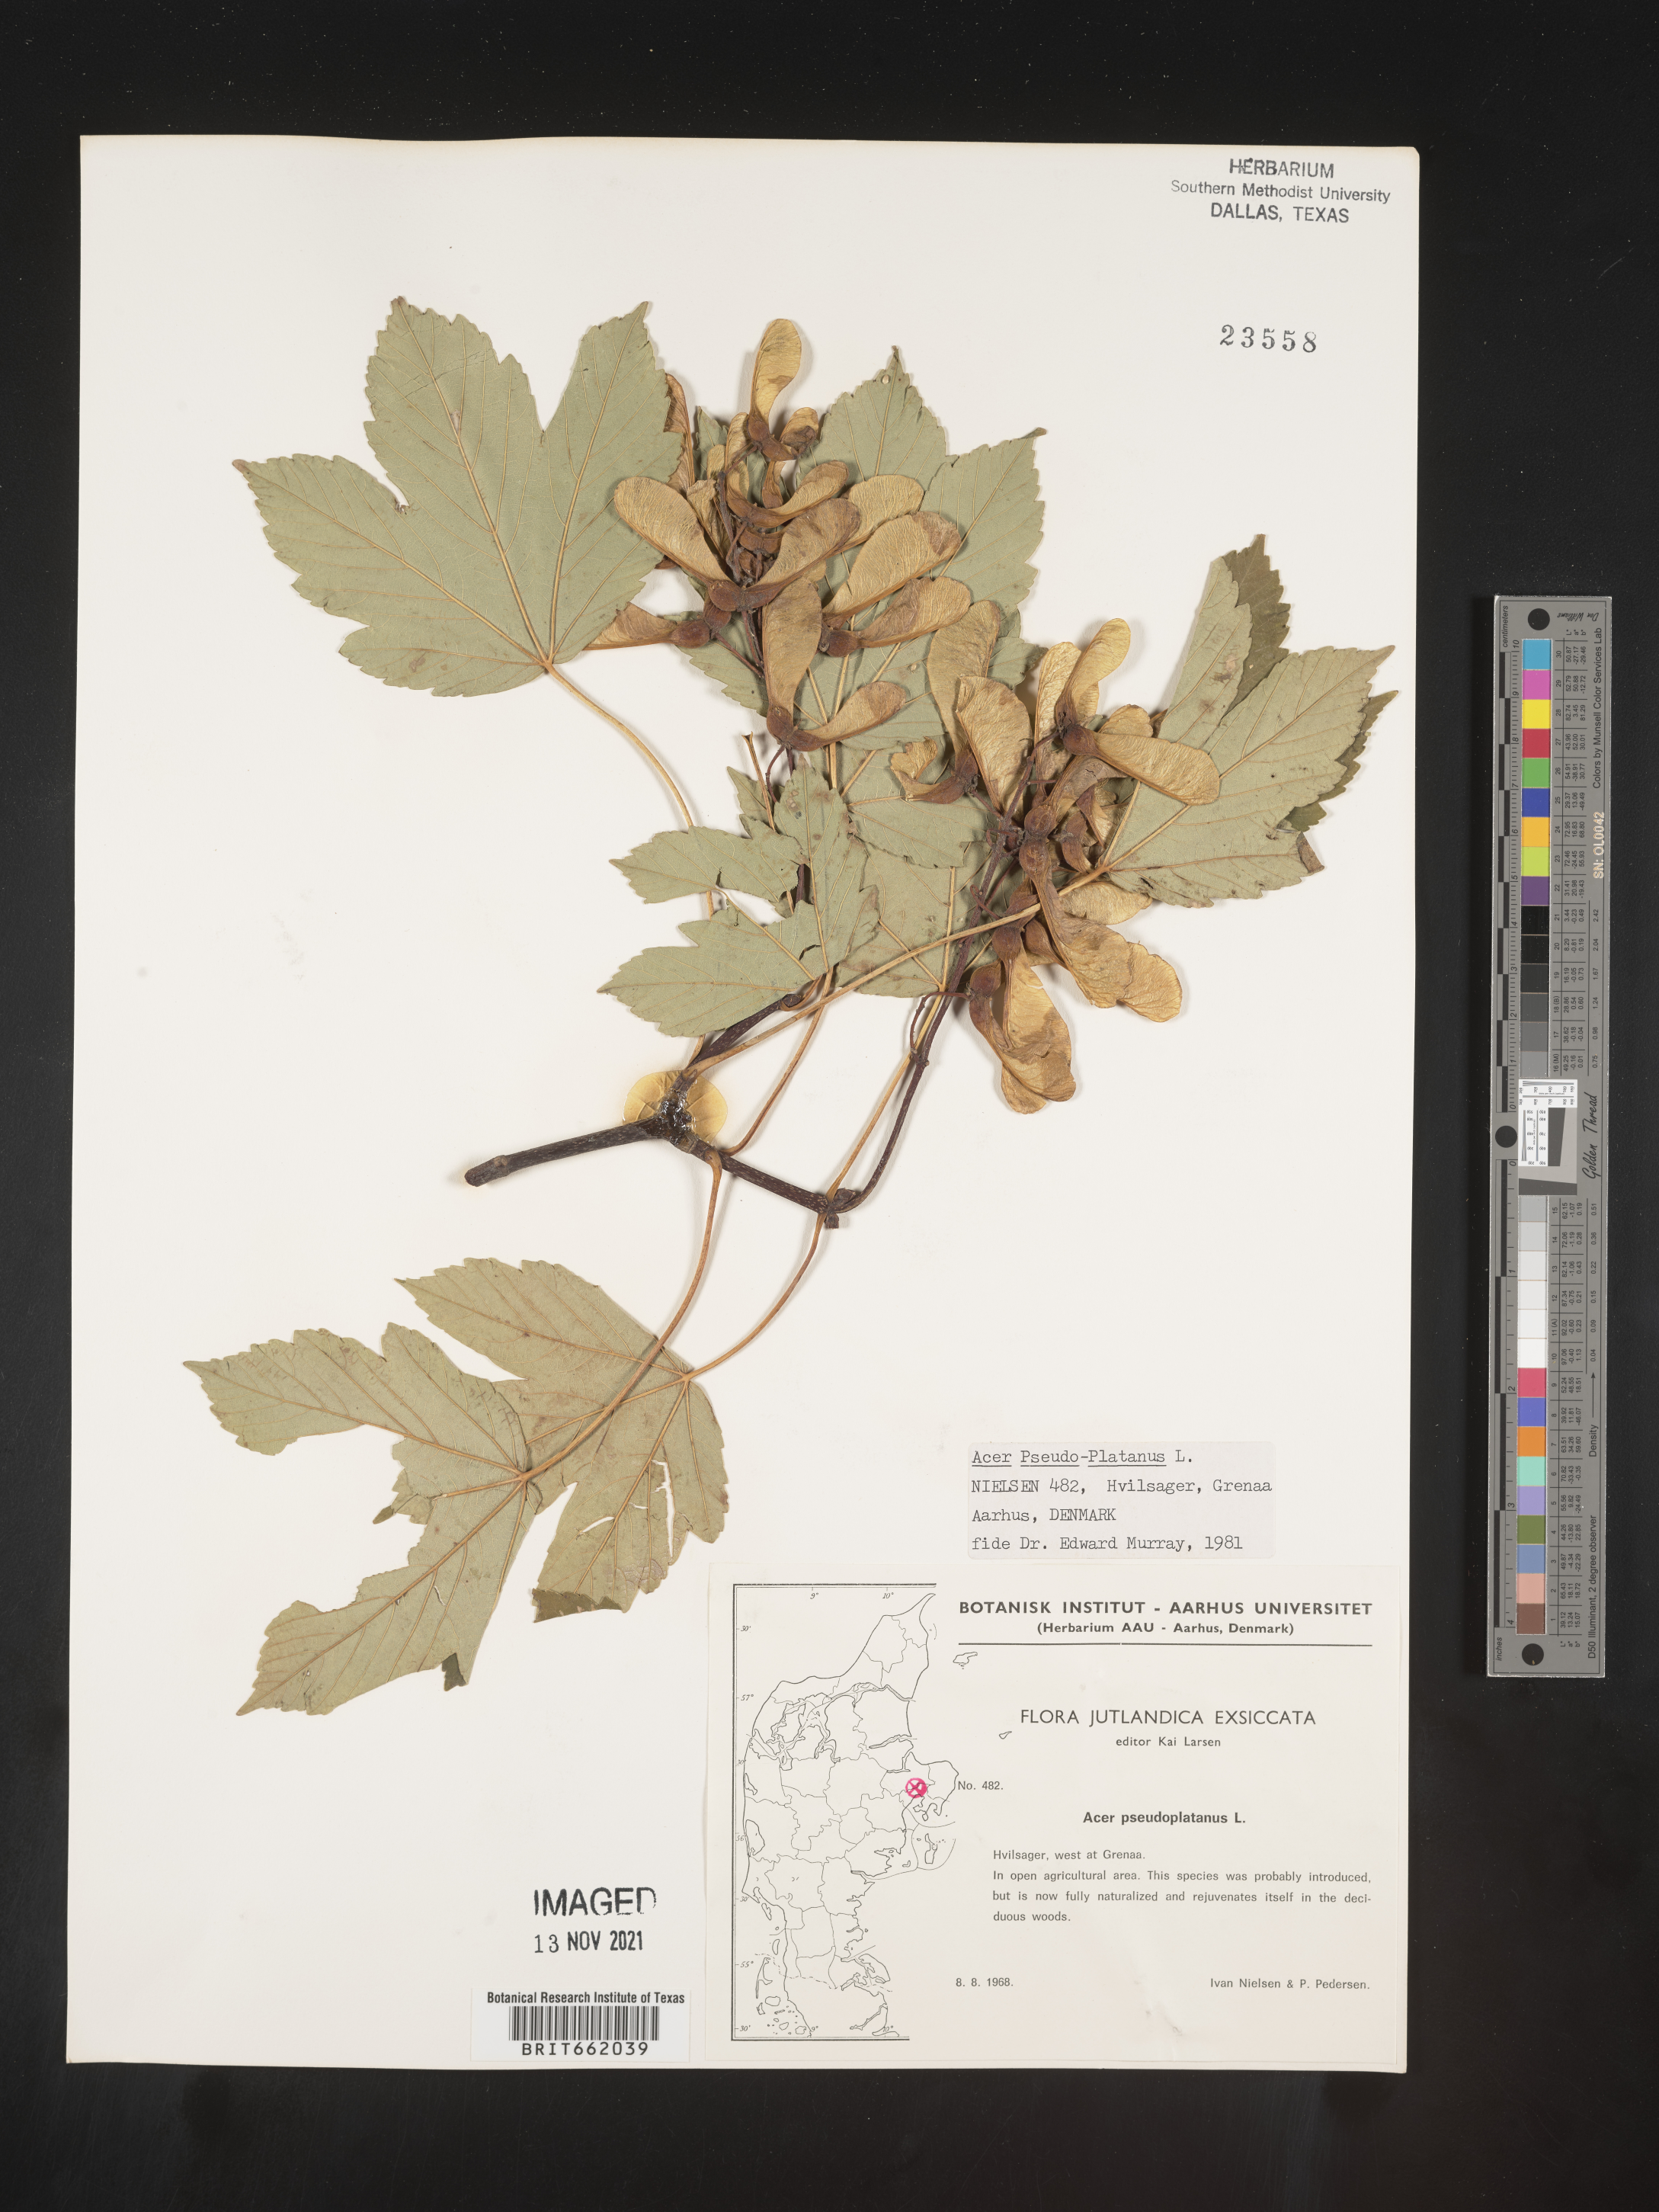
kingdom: Plantae
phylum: Tracheophyta
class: Magnoliopsida
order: Sapindales
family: Sapindaceae
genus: Acer
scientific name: Acer
